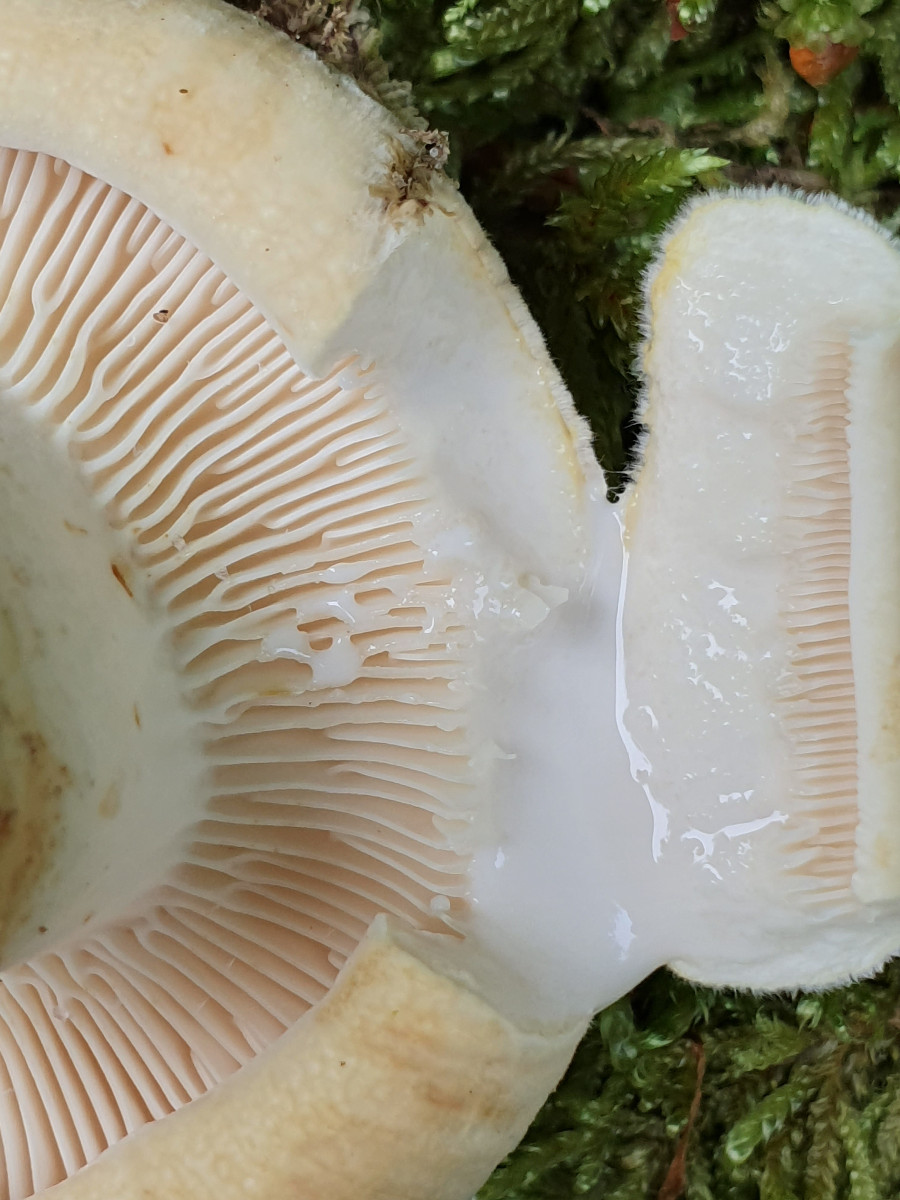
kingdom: Fungi
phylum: Basidiomycota
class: Agaricomycetes
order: Russulales
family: Russulaceae
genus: Lactifluus
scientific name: Lactifluus
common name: mælkehat
